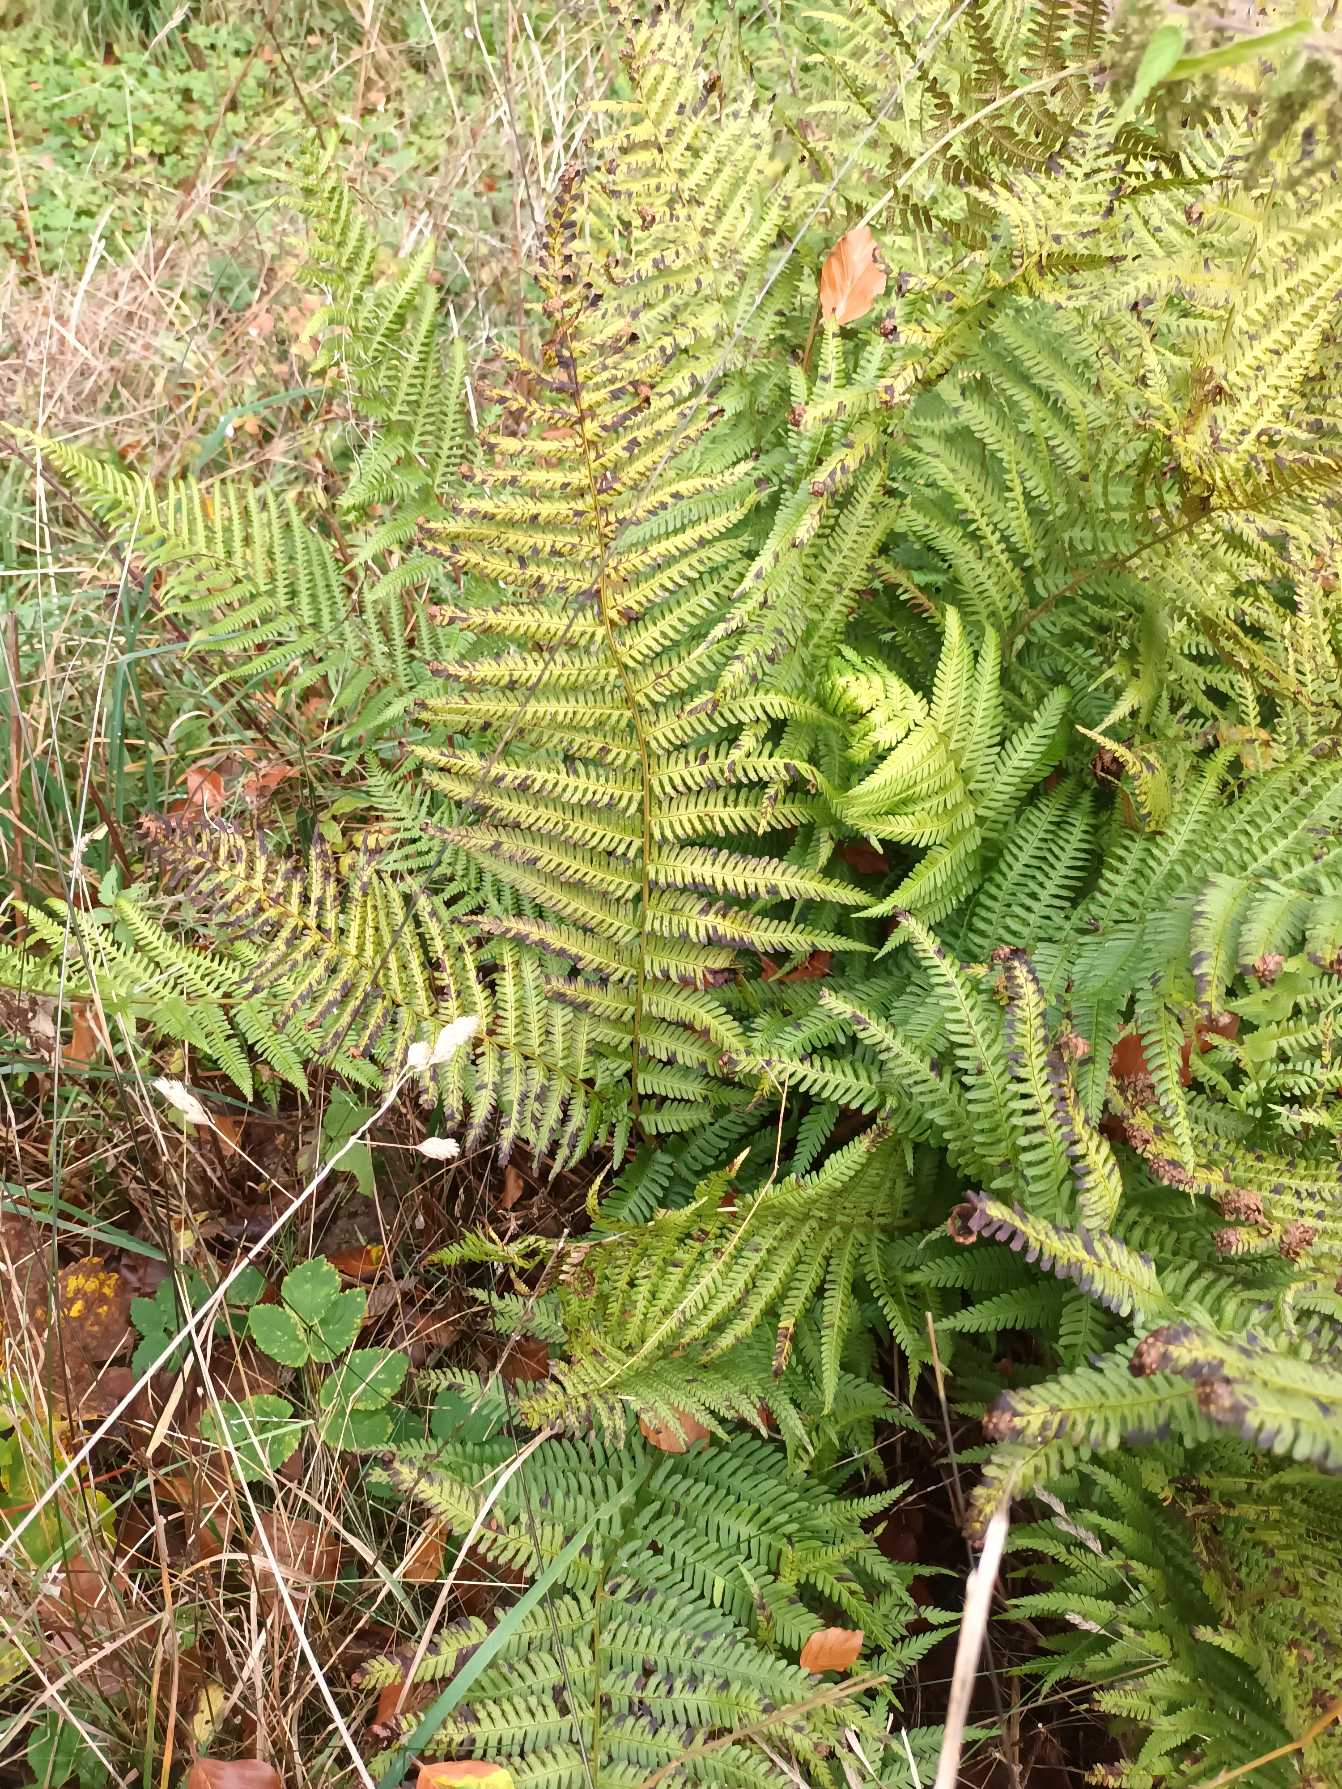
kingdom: Plantae
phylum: Tracheophyta
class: Polypodiopsida
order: Polypodiales
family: Dryopteridaceae
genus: Dryopteris
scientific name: Dryopteris filix-mas
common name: Almindelig mangeløv
